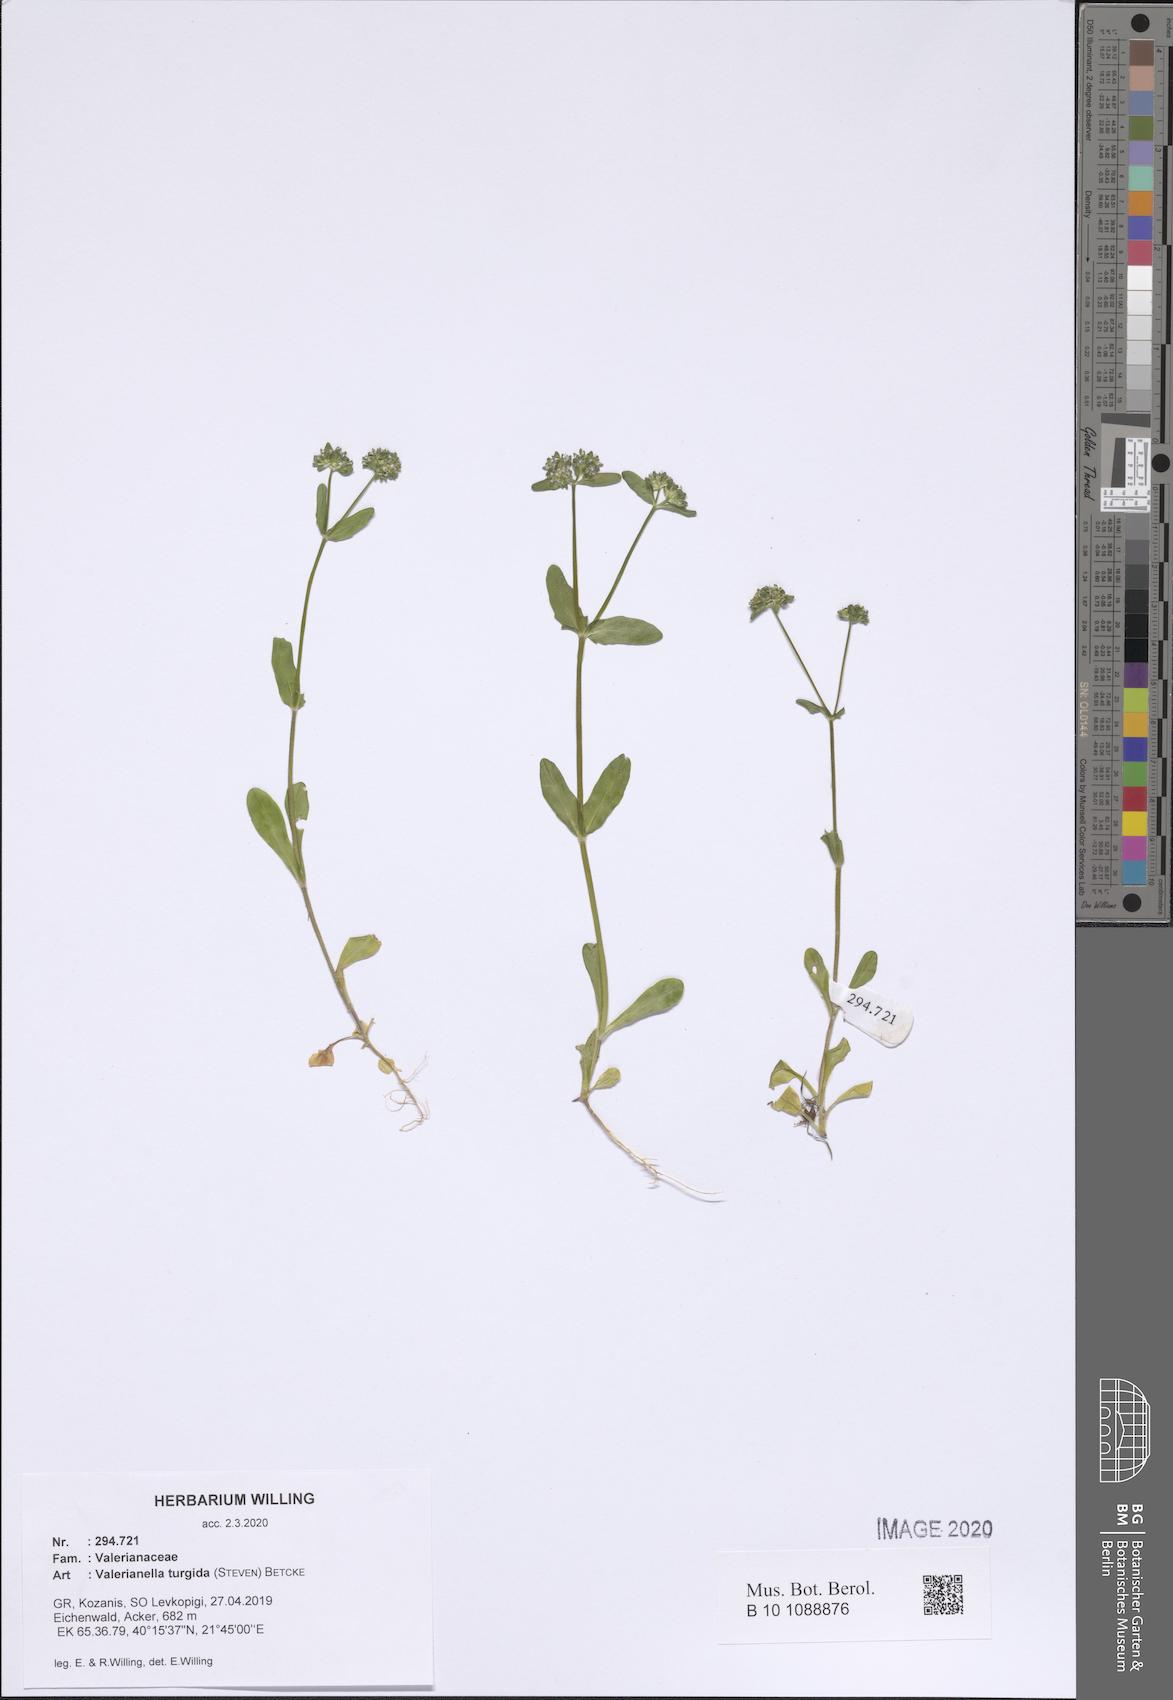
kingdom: Plantae
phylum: Tracheophyta
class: Magnoliopsida
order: Dipsacales
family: Caprifoliaceae
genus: Valerianella
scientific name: Valerianella turgida
